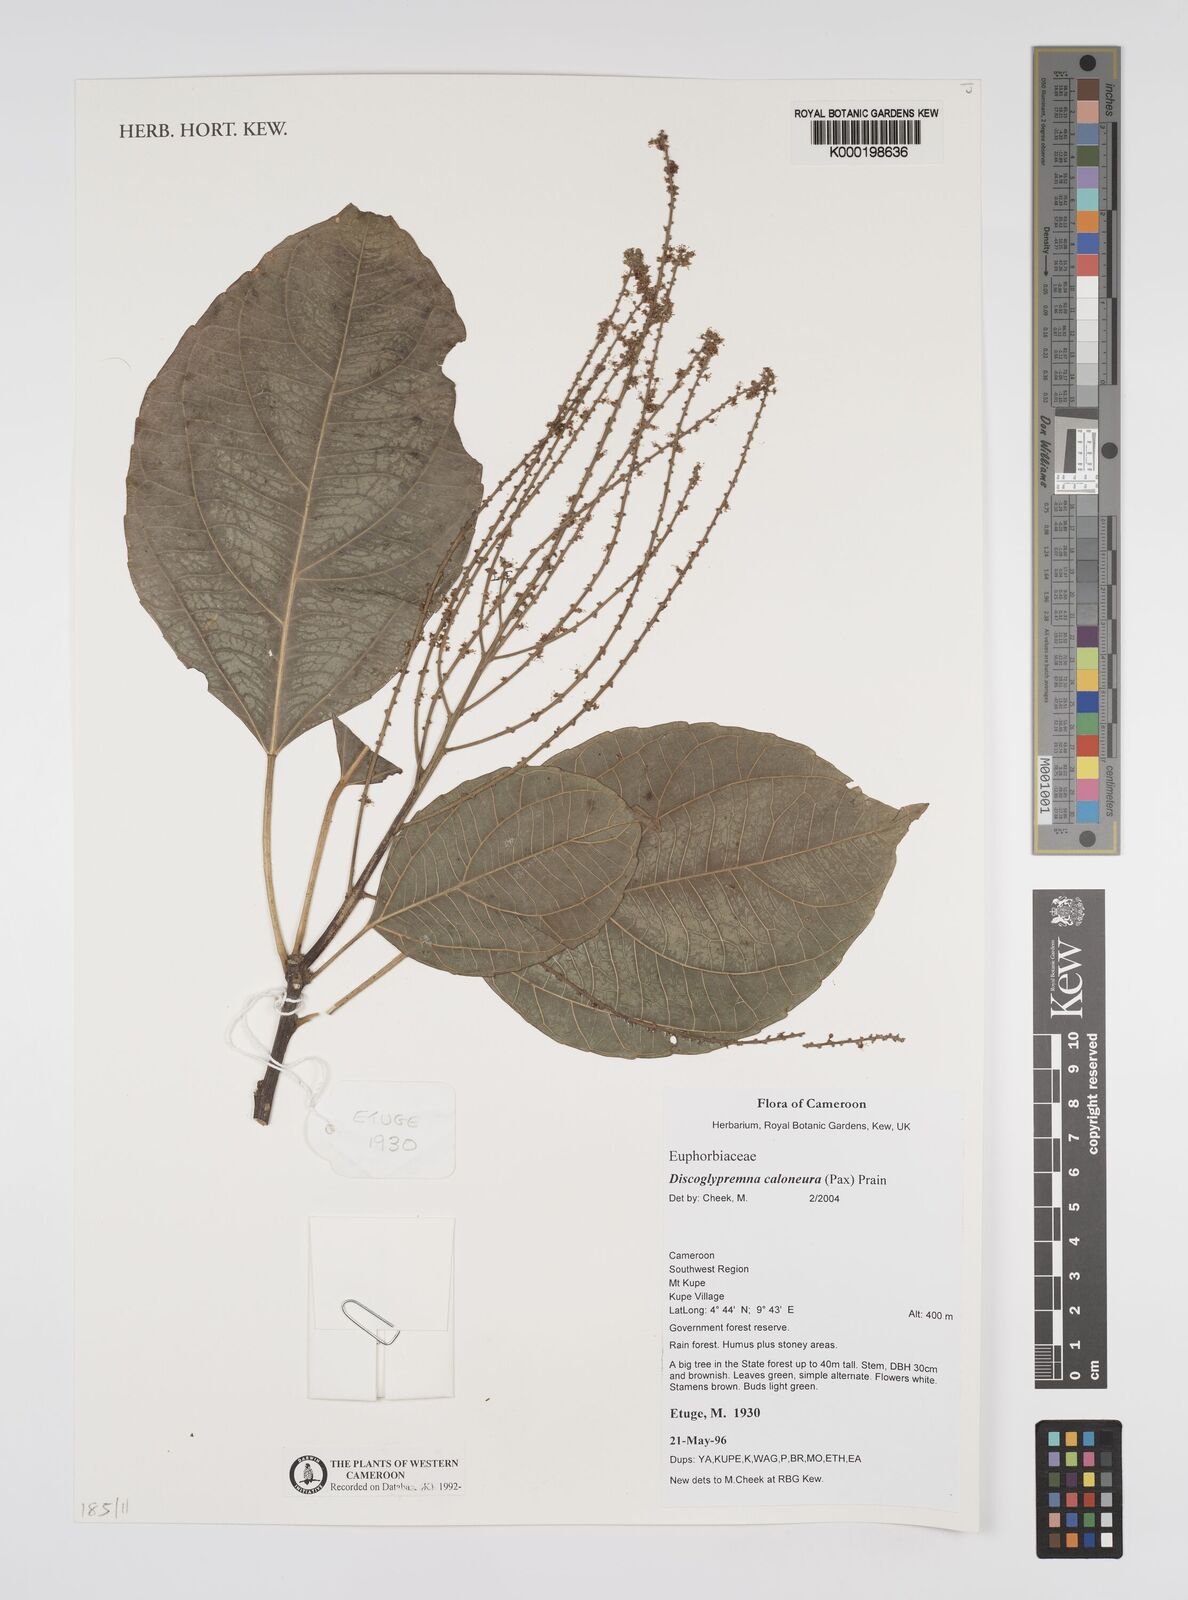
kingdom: Plantae
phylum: Tracheophyta
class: Magnoliopsida
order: Malpighiales
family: Euphorbiaceae
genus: Discoglypremna
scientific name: Discoglypremna caloneura
